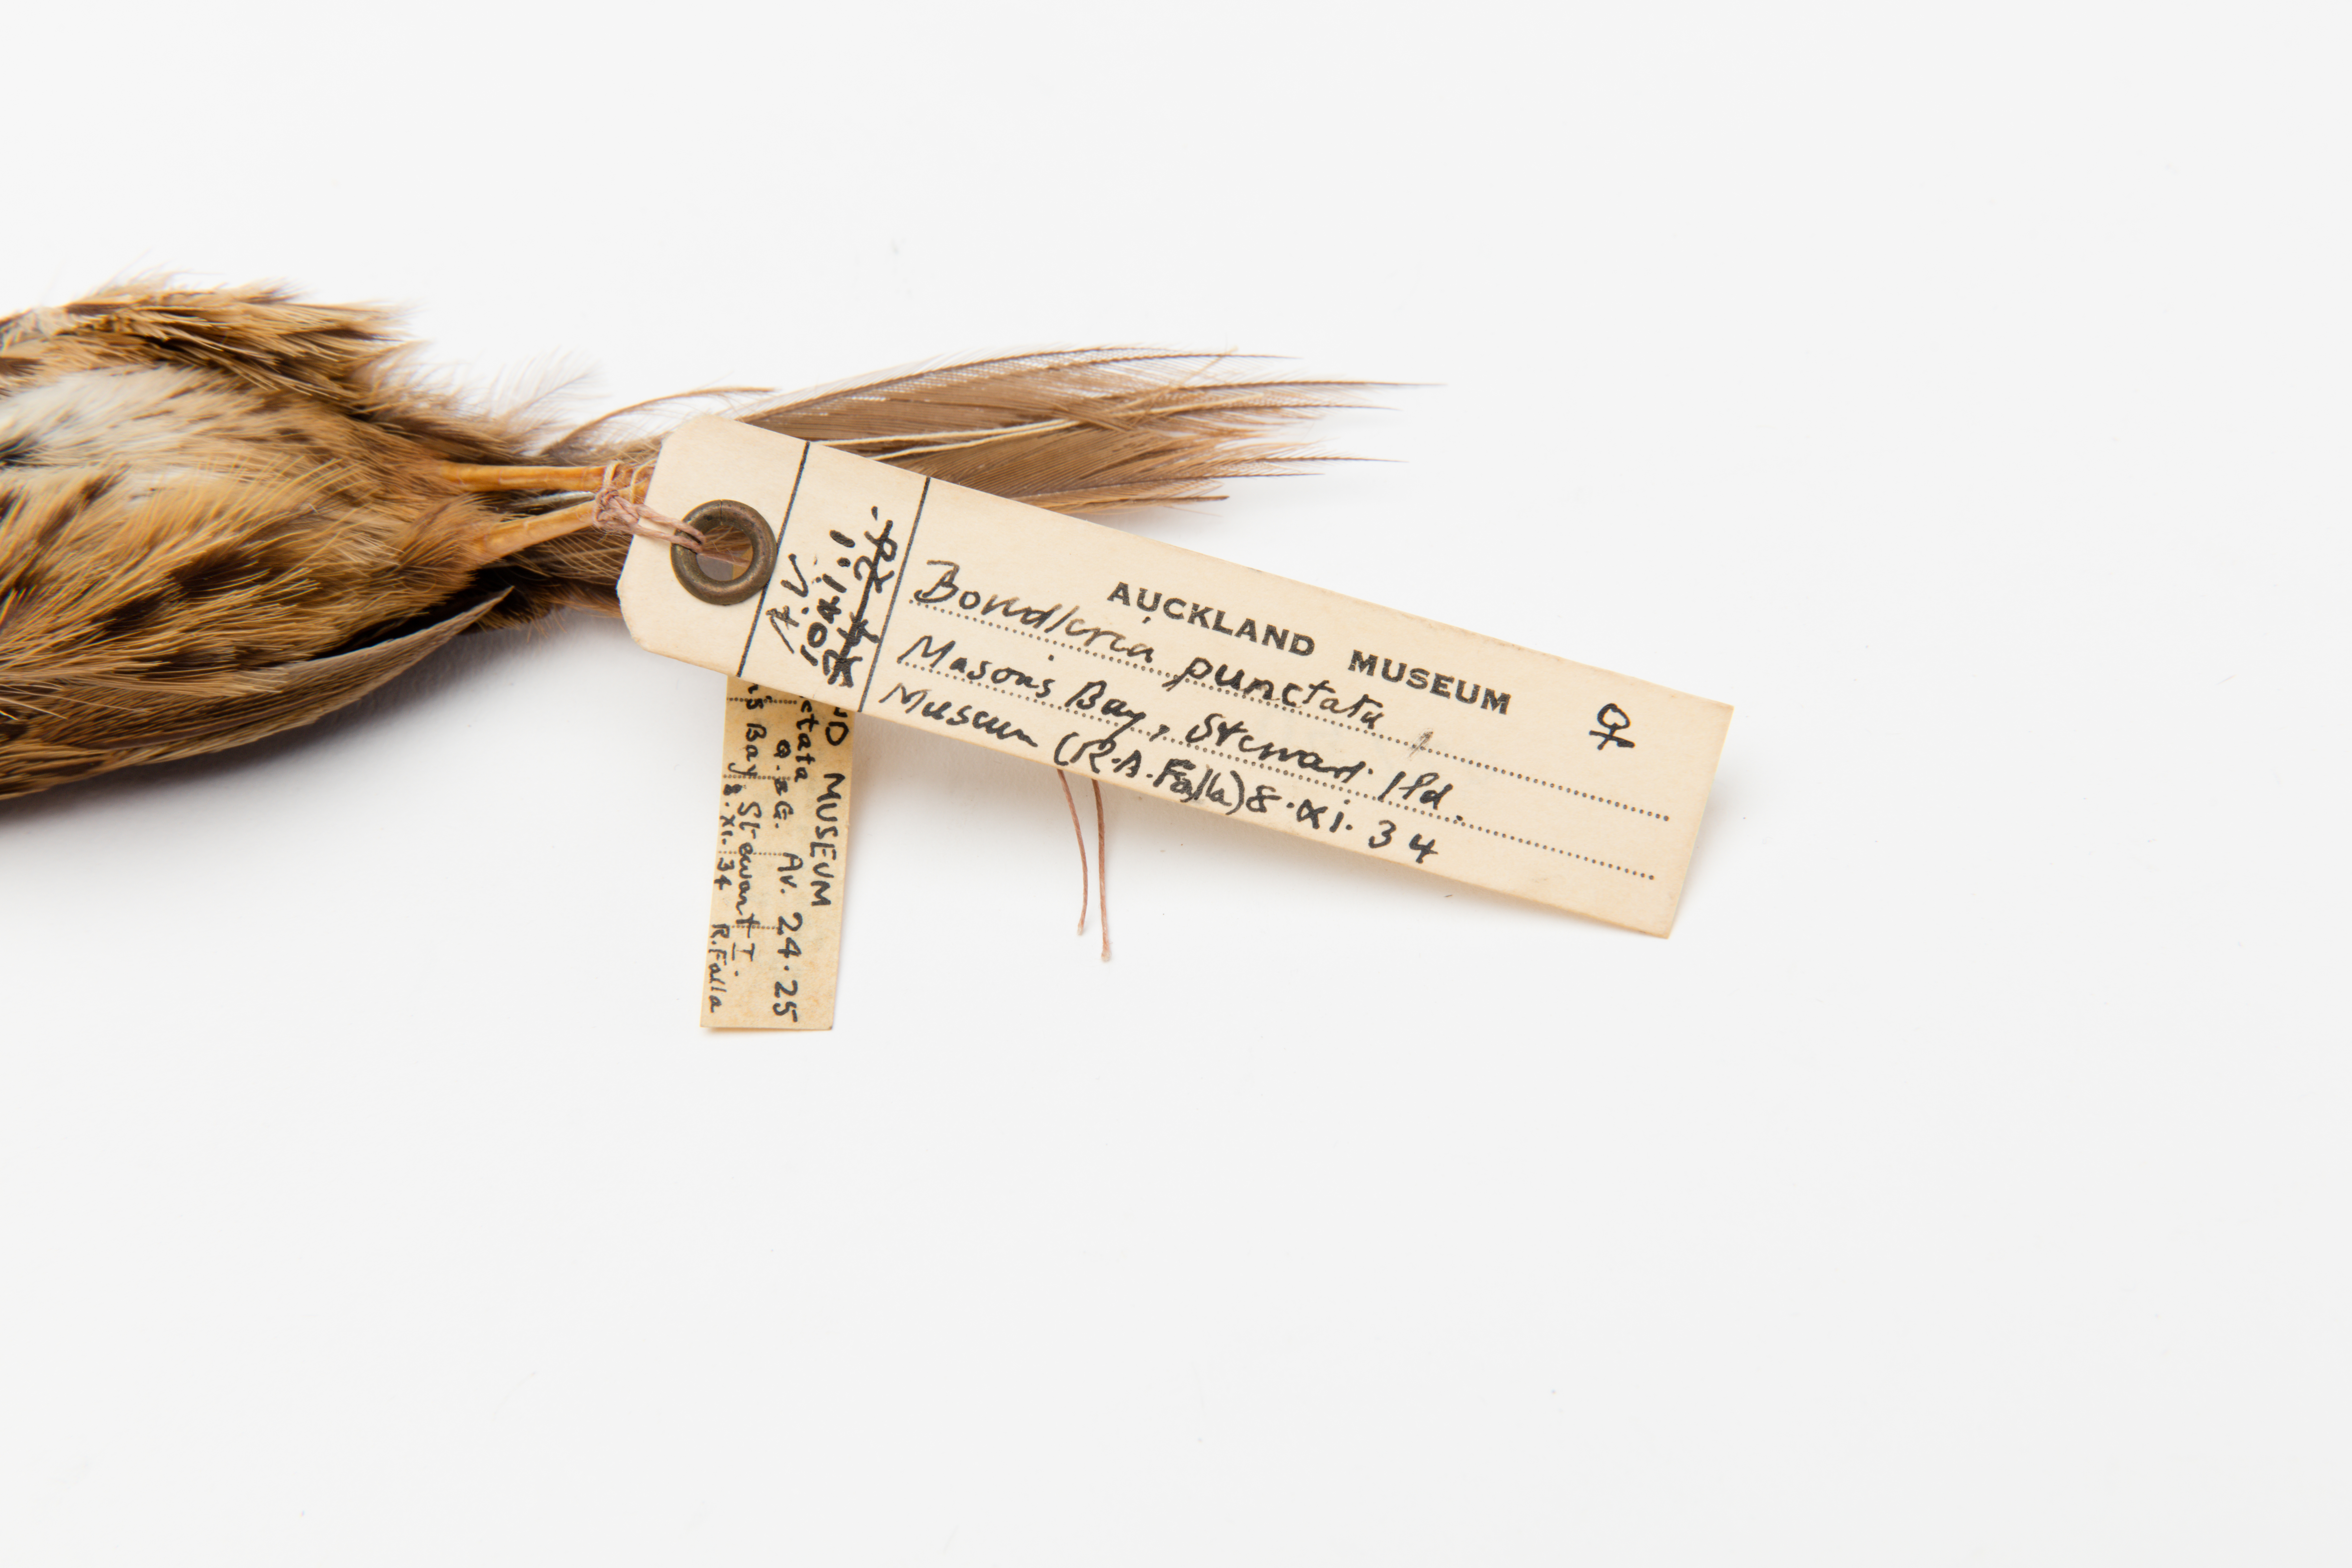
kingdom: Animalia
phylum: Chordata
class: Aves
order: Passeriformes
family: Locustellidae
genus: Megalurus
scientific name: Megalurus punctatus
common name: New zealand fernbird
